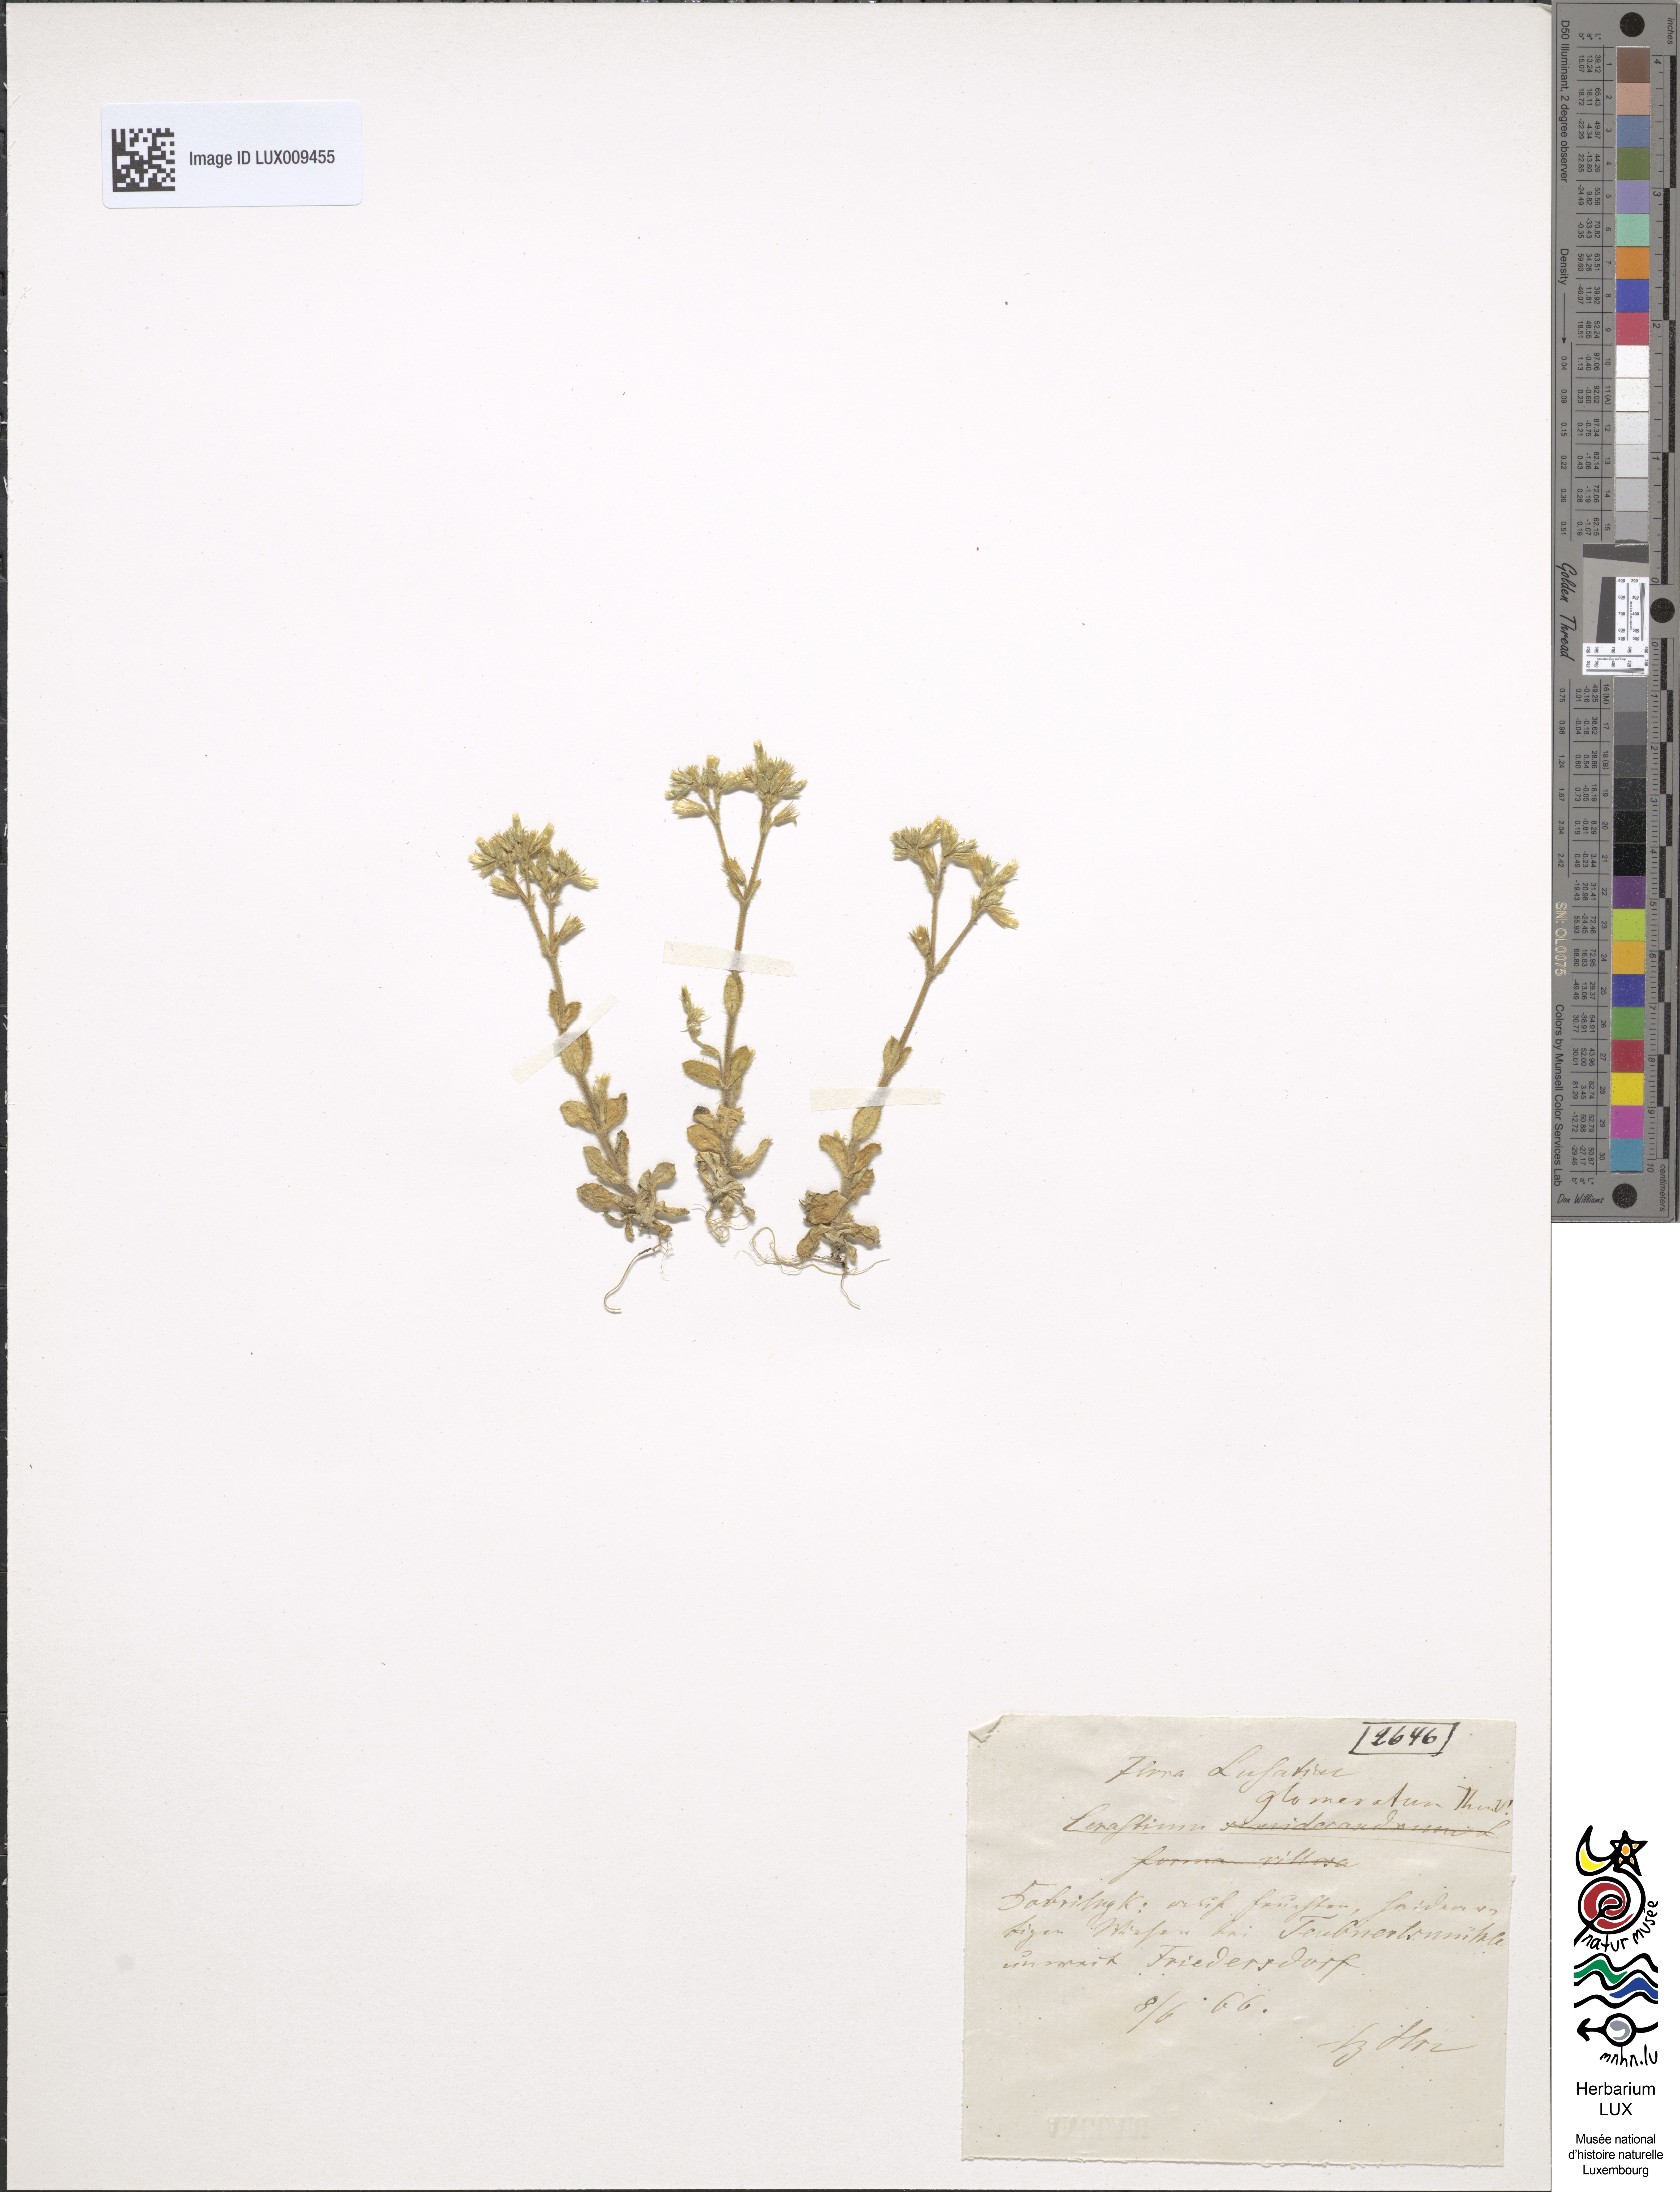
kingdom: Plantae
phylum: Tracheophyta
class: Magnoliopsida
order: Caryophyllales
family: Caryophyllaceae
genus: Cerastium
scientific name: Cerastium glomeratum
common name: Sticky chickweed
